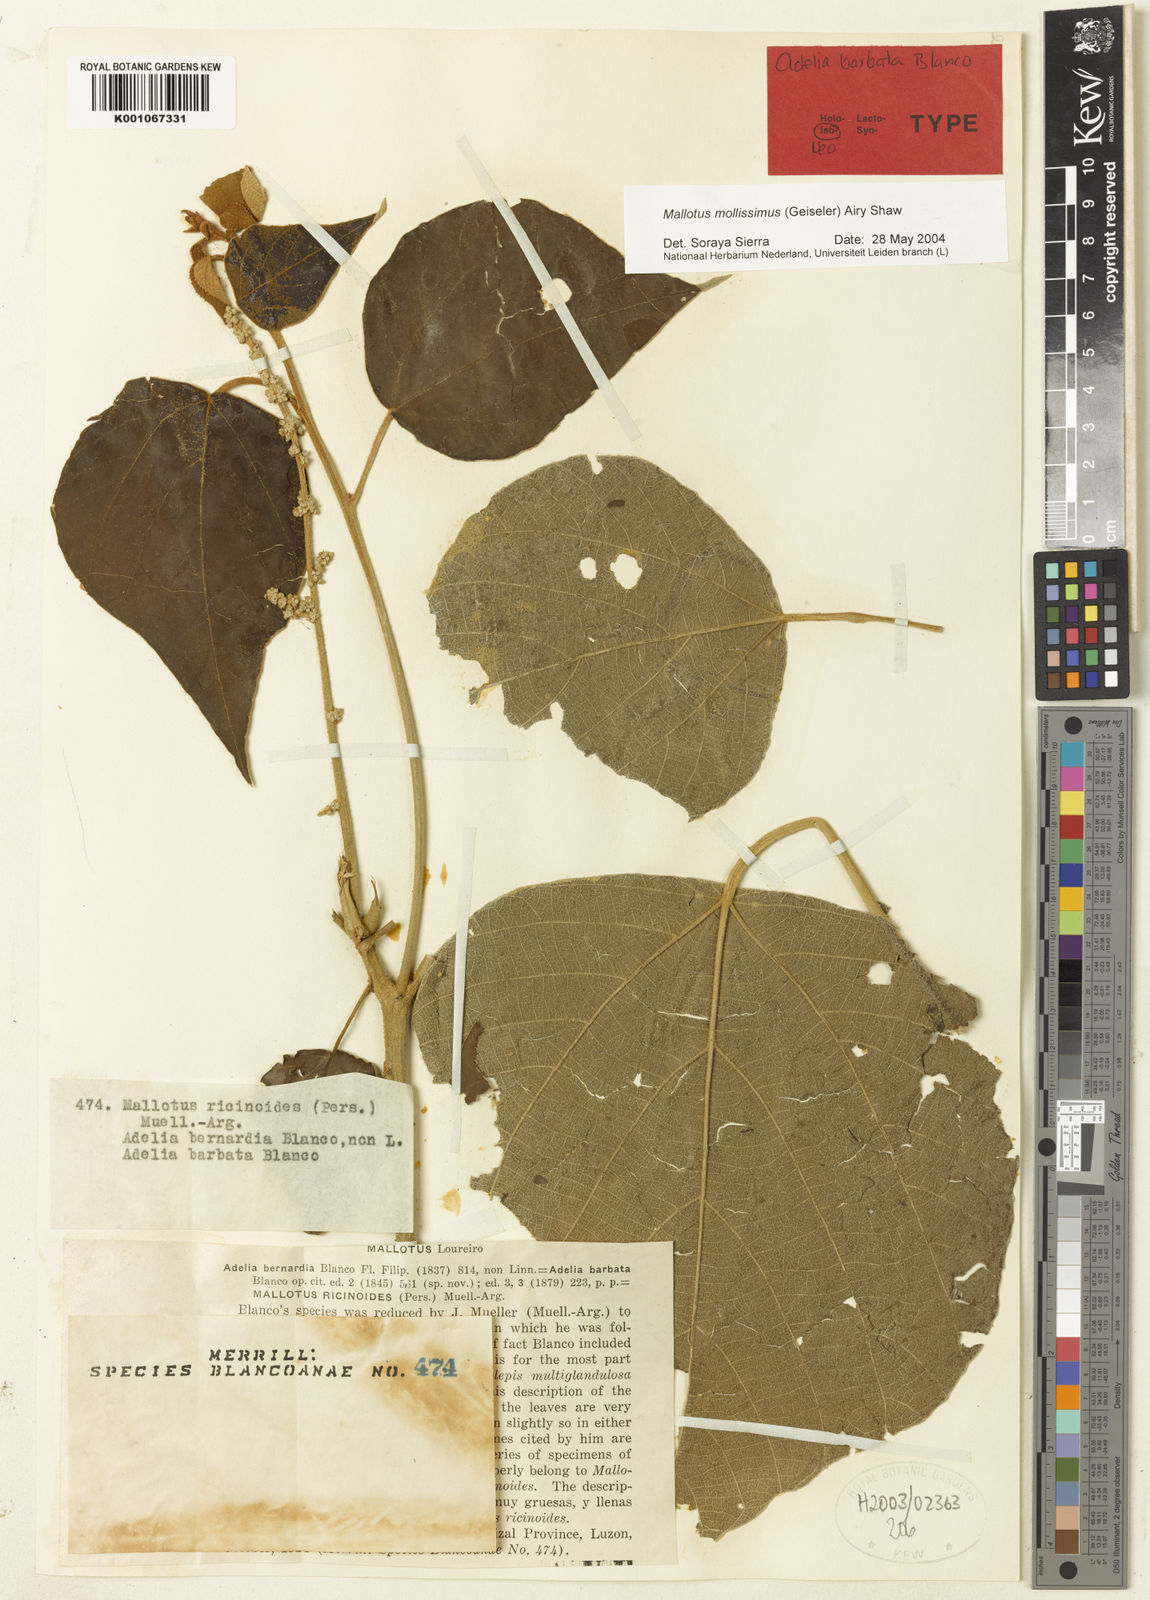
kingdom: Plantae
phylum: Tracheophyta
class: Magnoliopsida
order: Malpighiales
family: Euphorbiaceae
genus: Mallotus
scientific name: Mallotus mollissimus
